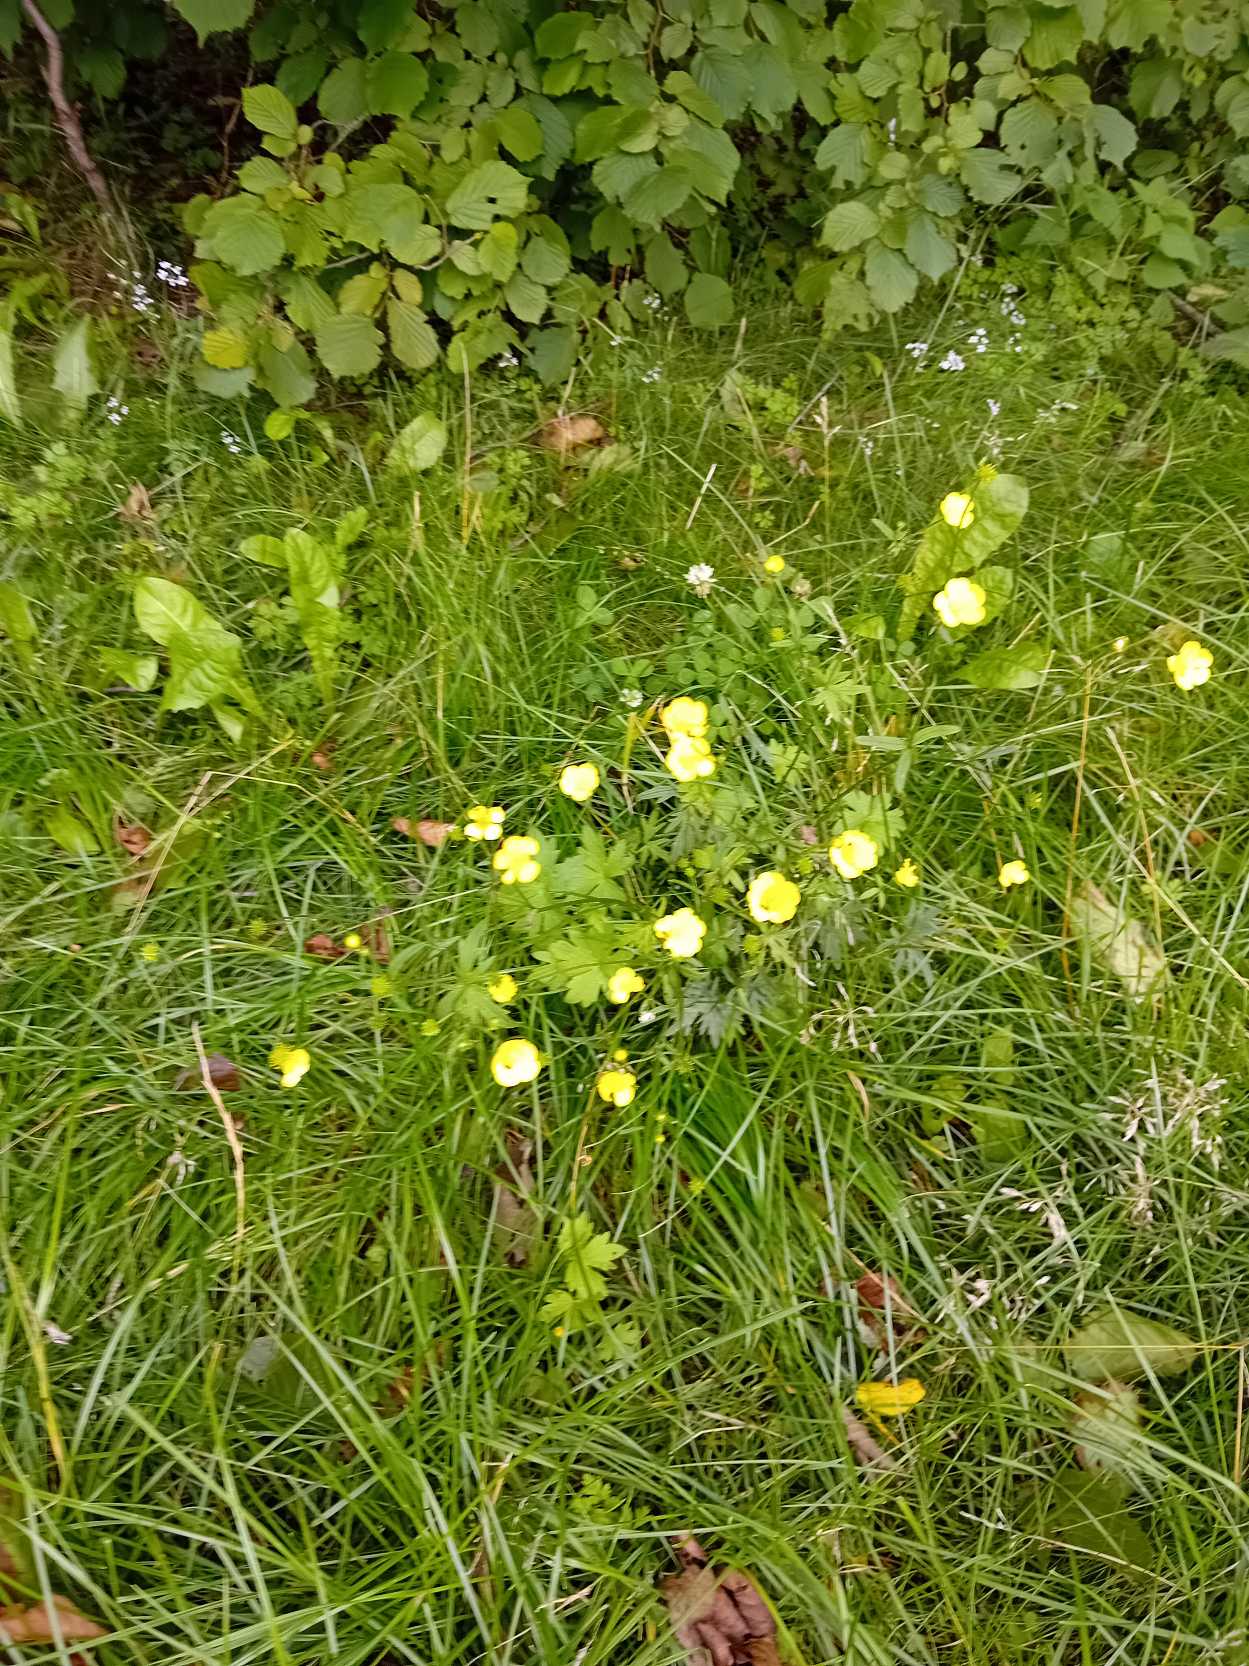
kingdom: Plantae
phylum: Tracheophyta
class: Magnoliopsida
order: Ranunculales
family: Ranunculaceae
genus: Ranunculus
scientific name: Ranunculus acris
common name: Bidende ranunkel
